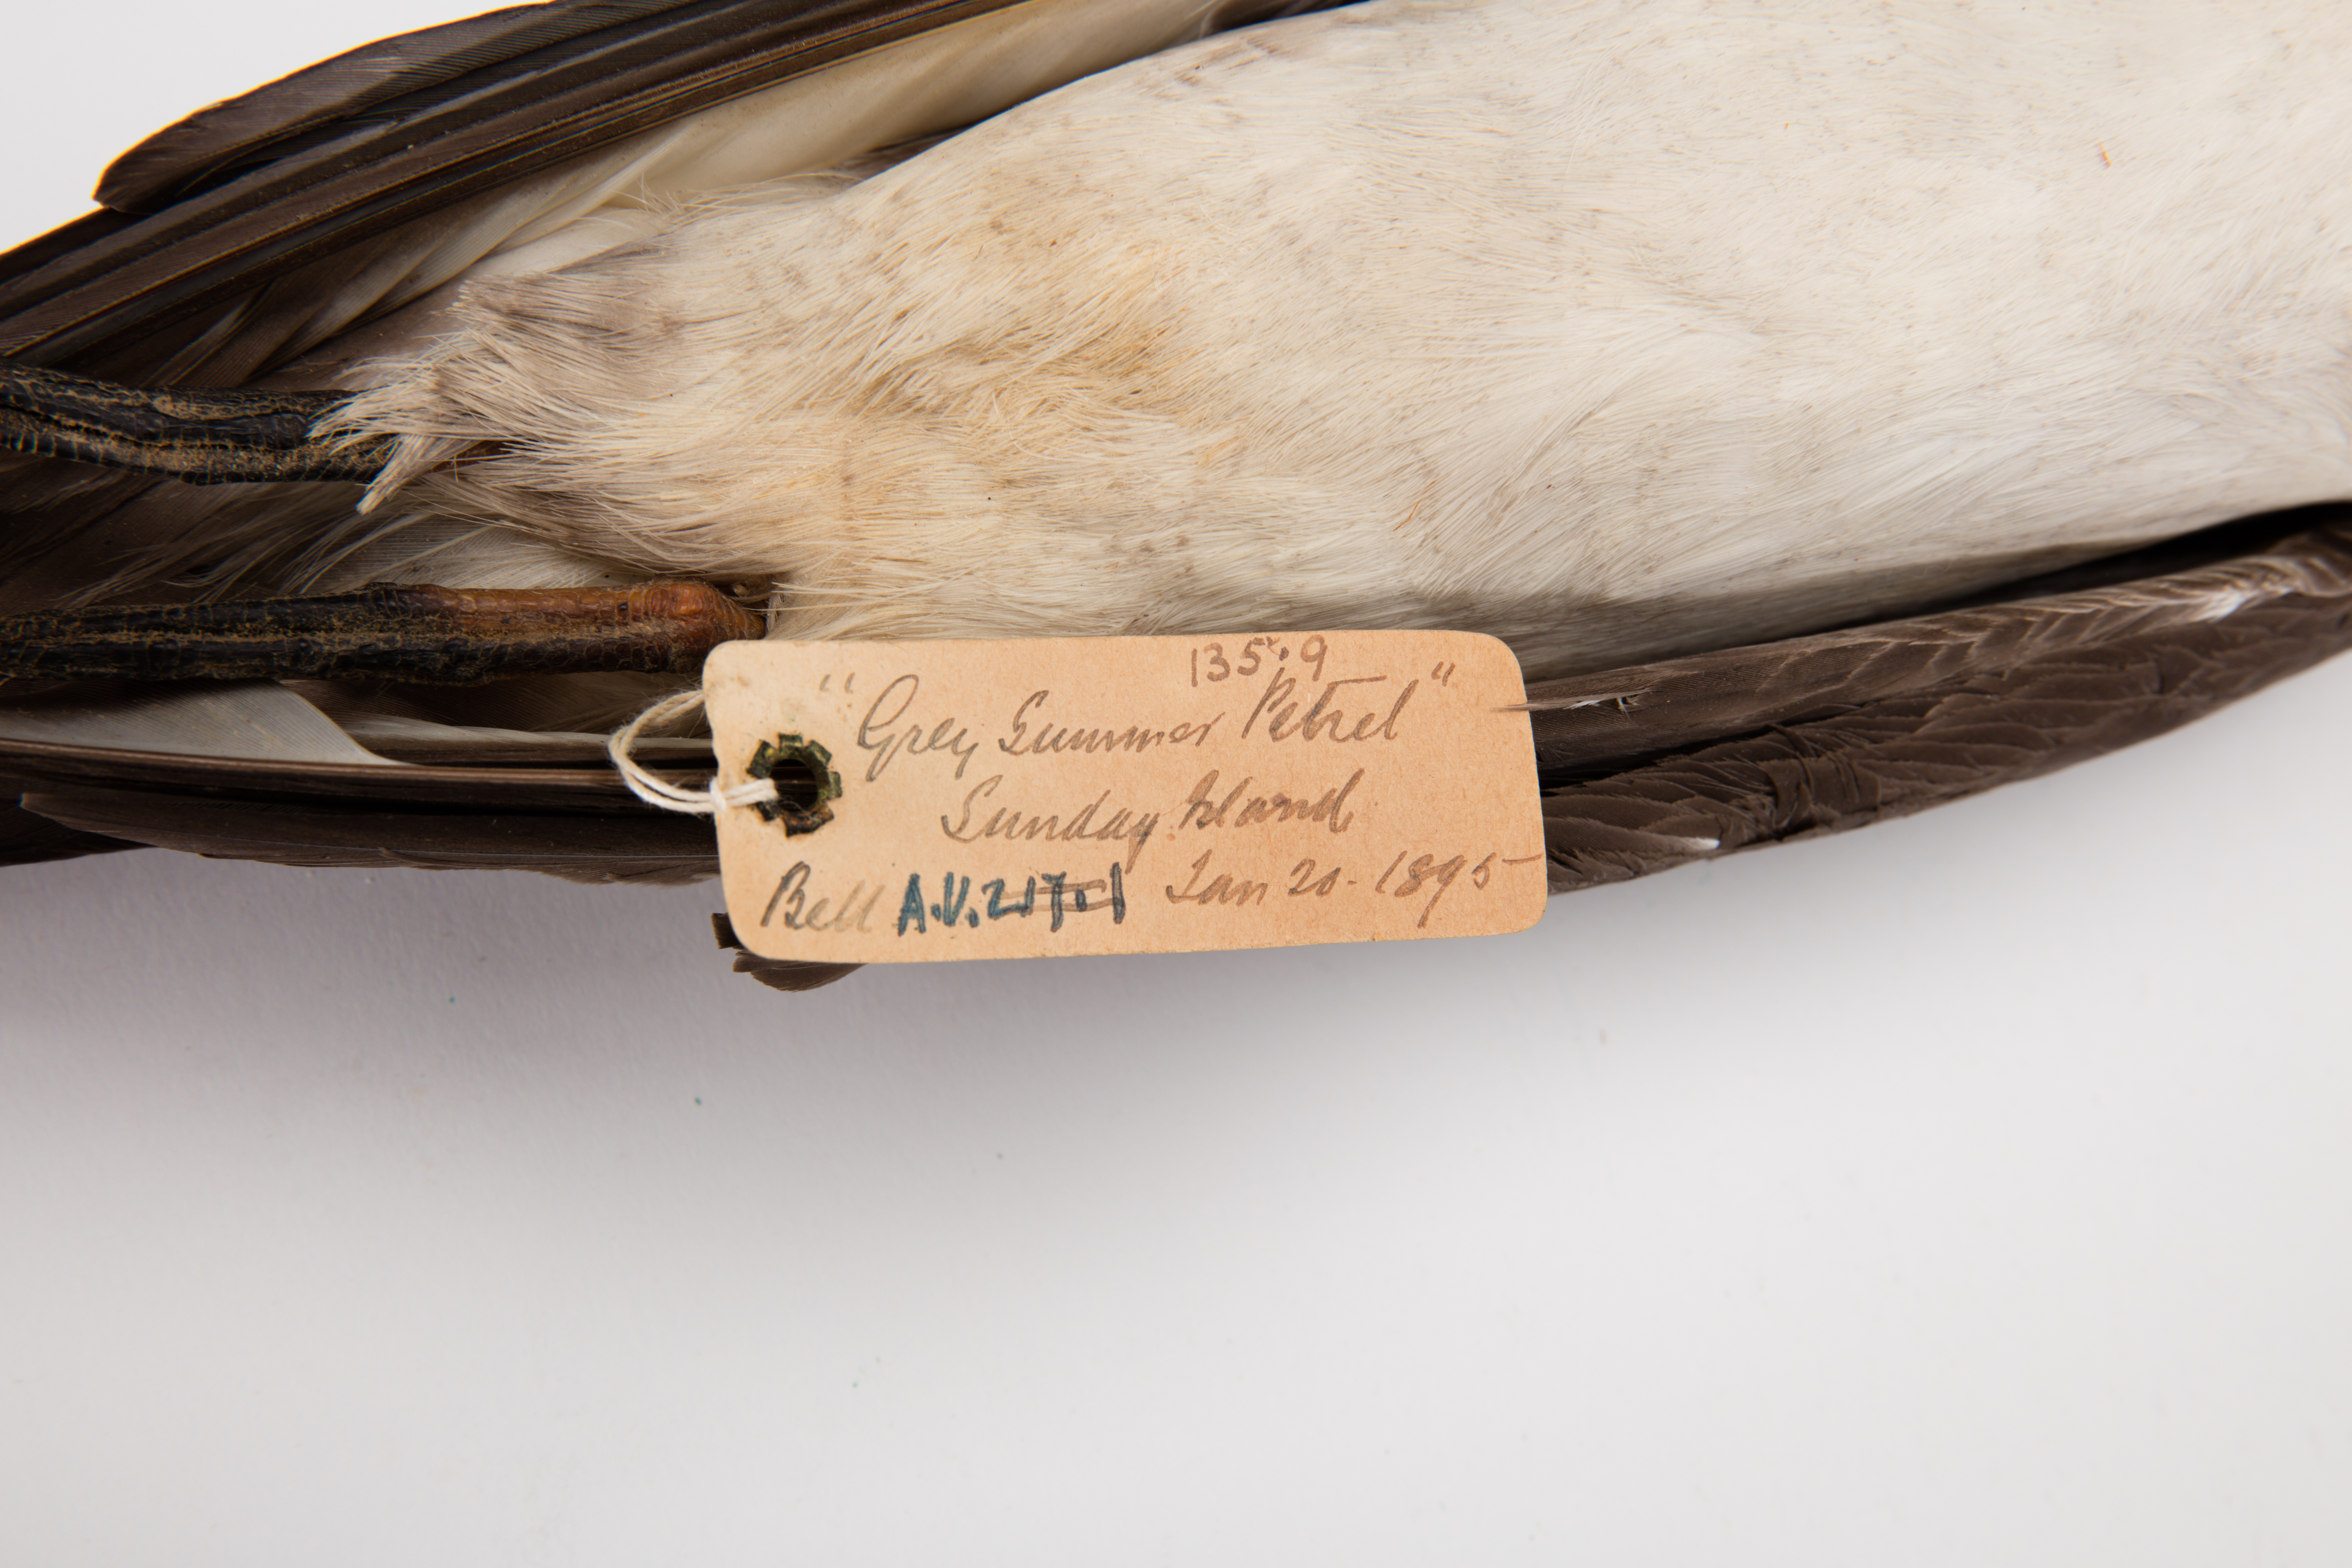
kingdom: Animalia
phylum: Chordata
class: Aves
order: Procellariiformes
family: Procellariidae
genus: Pterodroma
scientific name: Pterodroma neglecta
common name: Kermadec petrel
